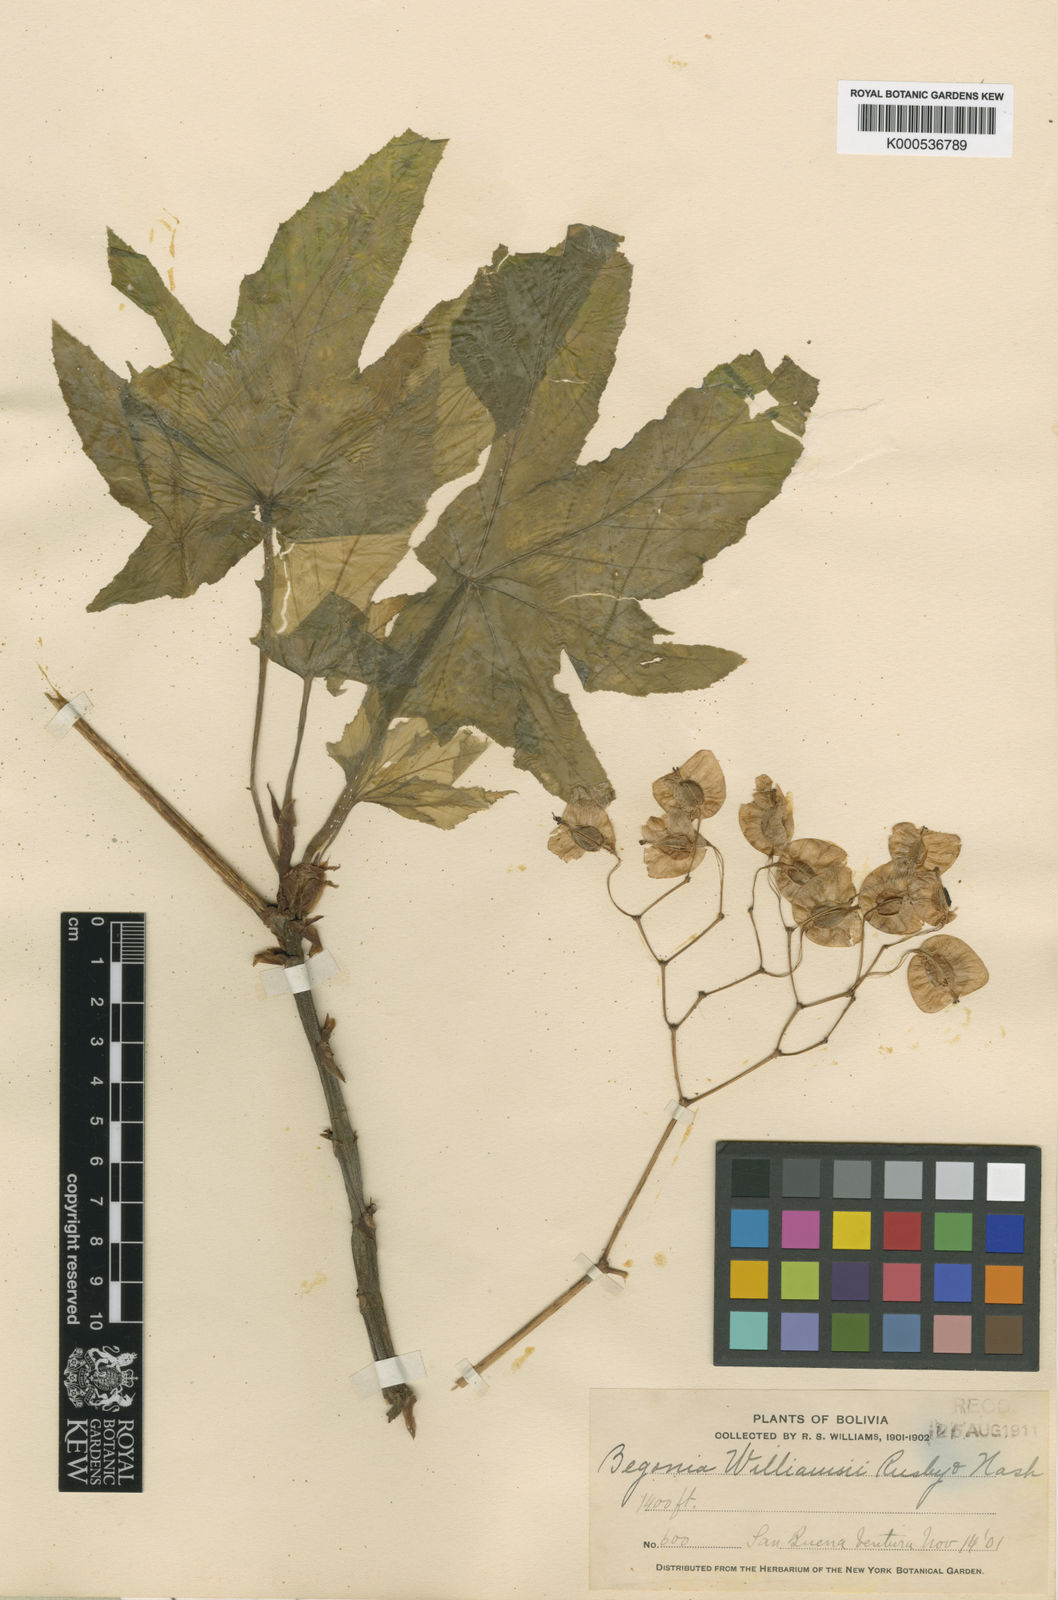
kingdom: Plantae
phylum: Tracheophyta
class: Magnoliopsida
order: Cucurbitales
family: Begoniaceae
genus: Begonia
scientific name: Begonia wollnyi
